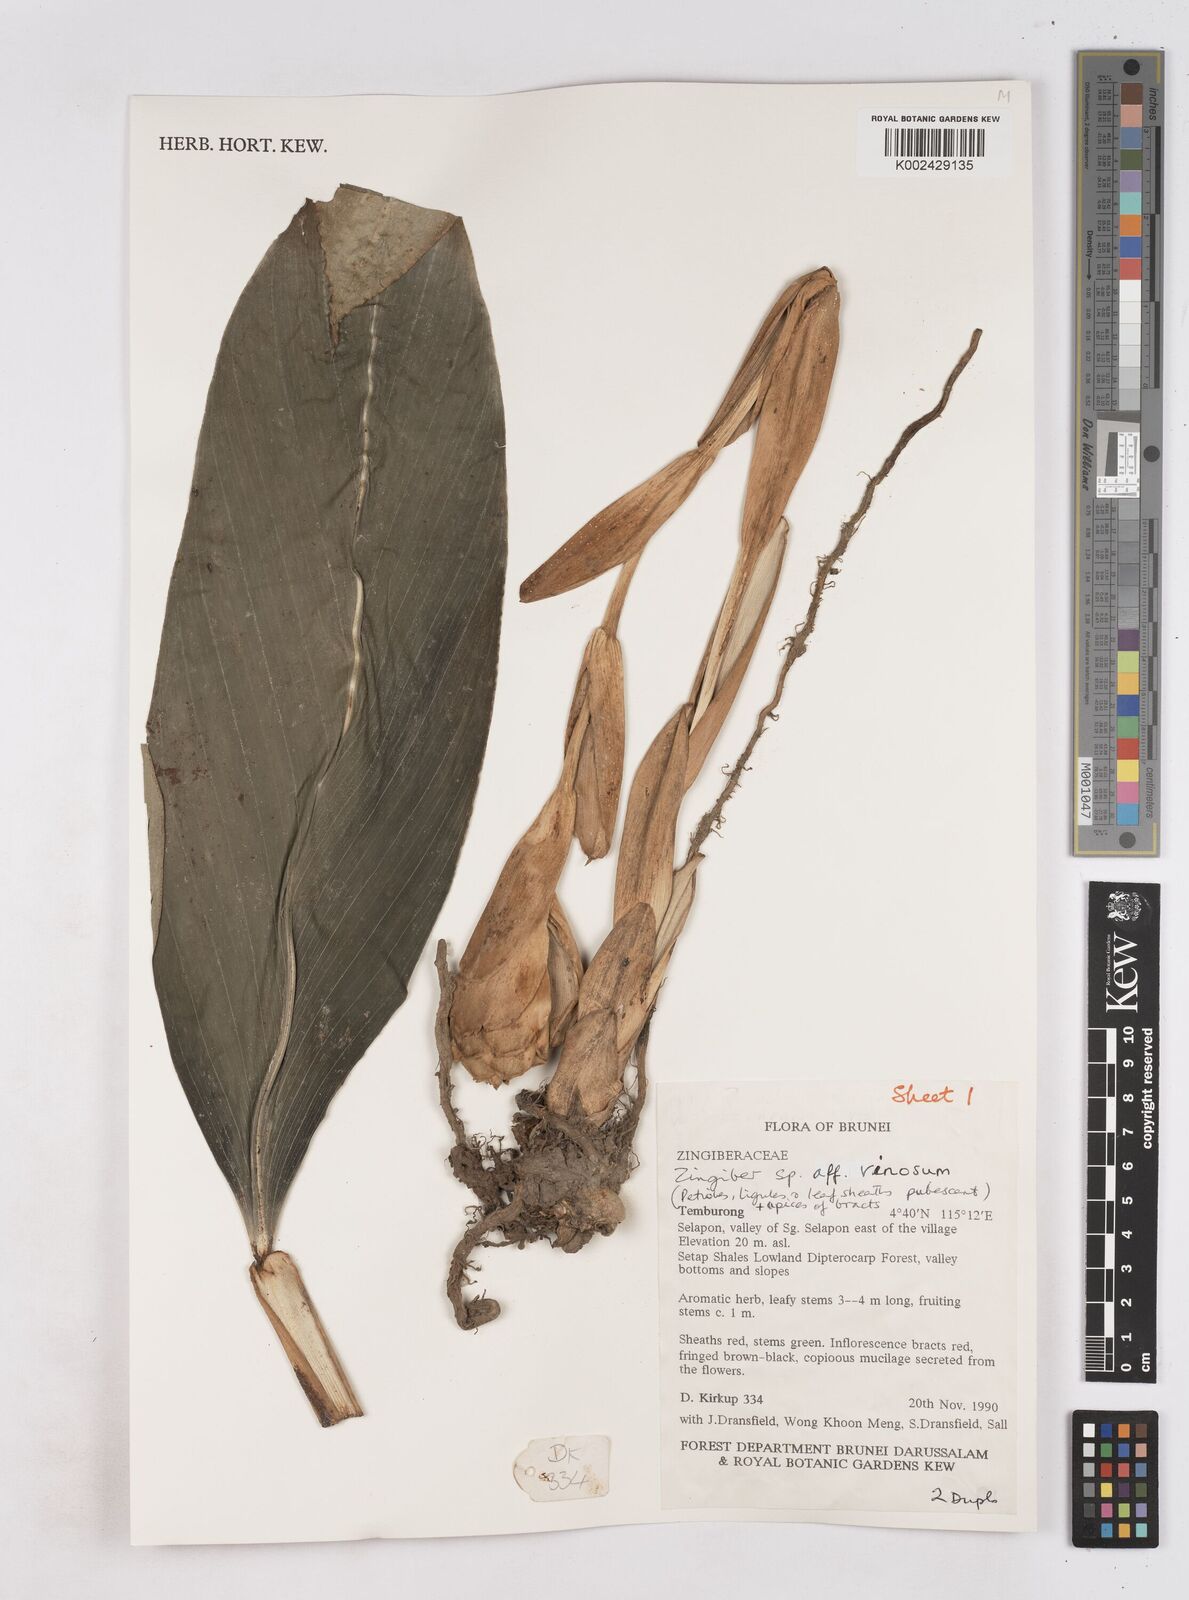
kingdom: Plantae
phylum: Tracheophyta
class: Liliopsida
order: Zingiberales
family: Zingiberaceae
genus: Zingiber
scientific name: Zingiber vinosum
